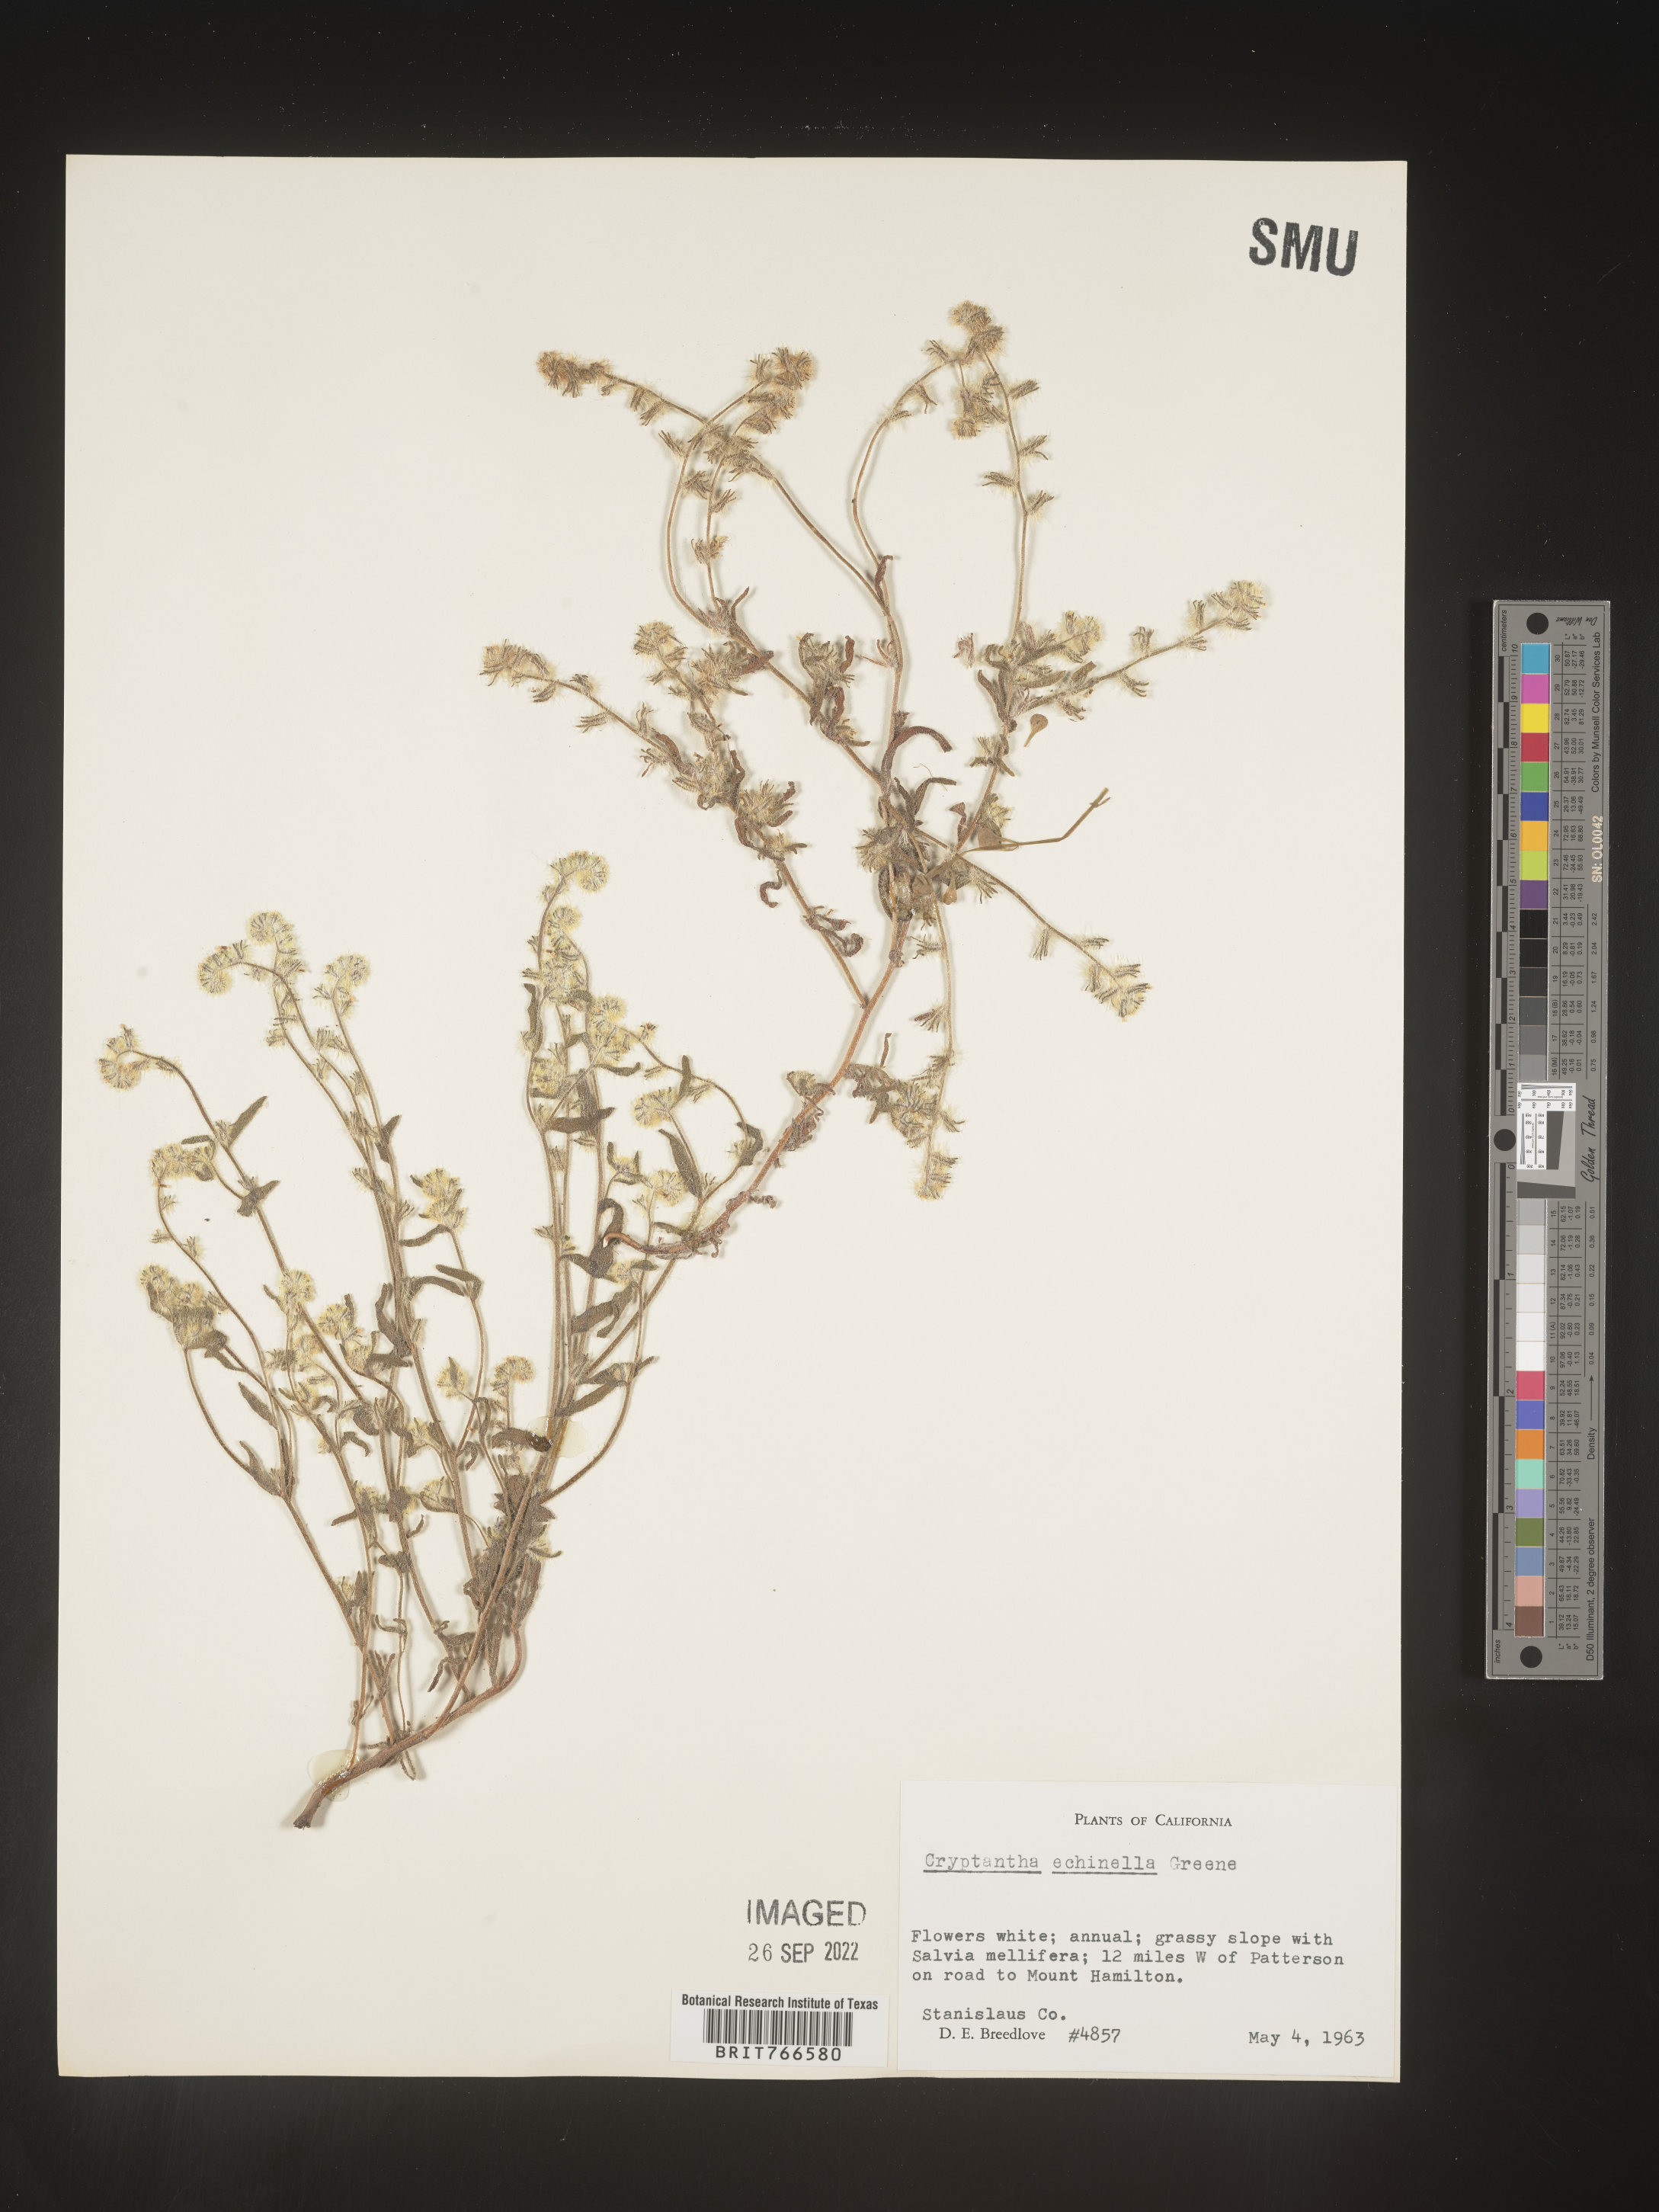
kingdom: Plantae
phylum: Tracheophyta
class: Magnoliopsida
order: Boraginales
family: Boraginaceae
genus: Cryptantha
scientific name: Cryptantha
